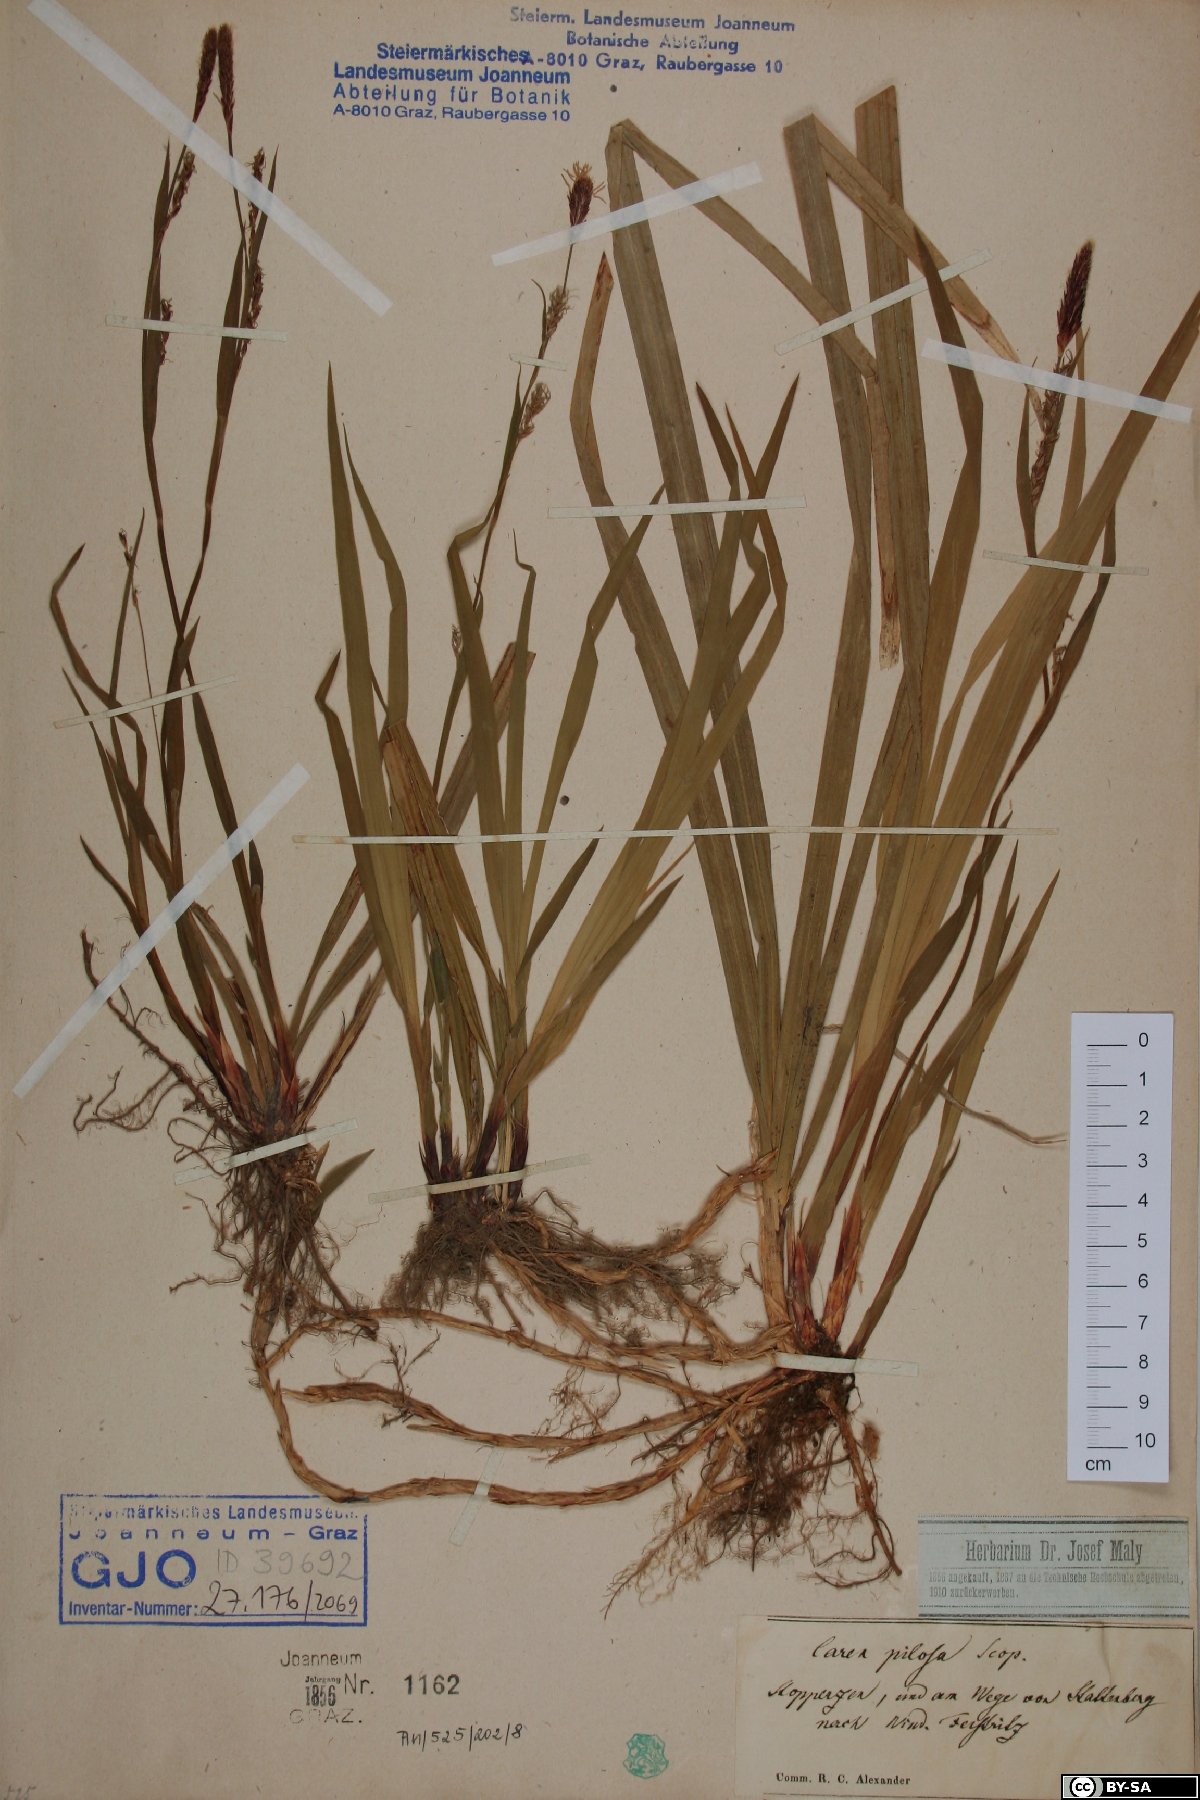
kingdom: Plantae
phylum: Tracheophyta
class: Liliopsida
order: Poales
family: Cyperaceae
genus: Carex
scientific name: Carex pilosa
